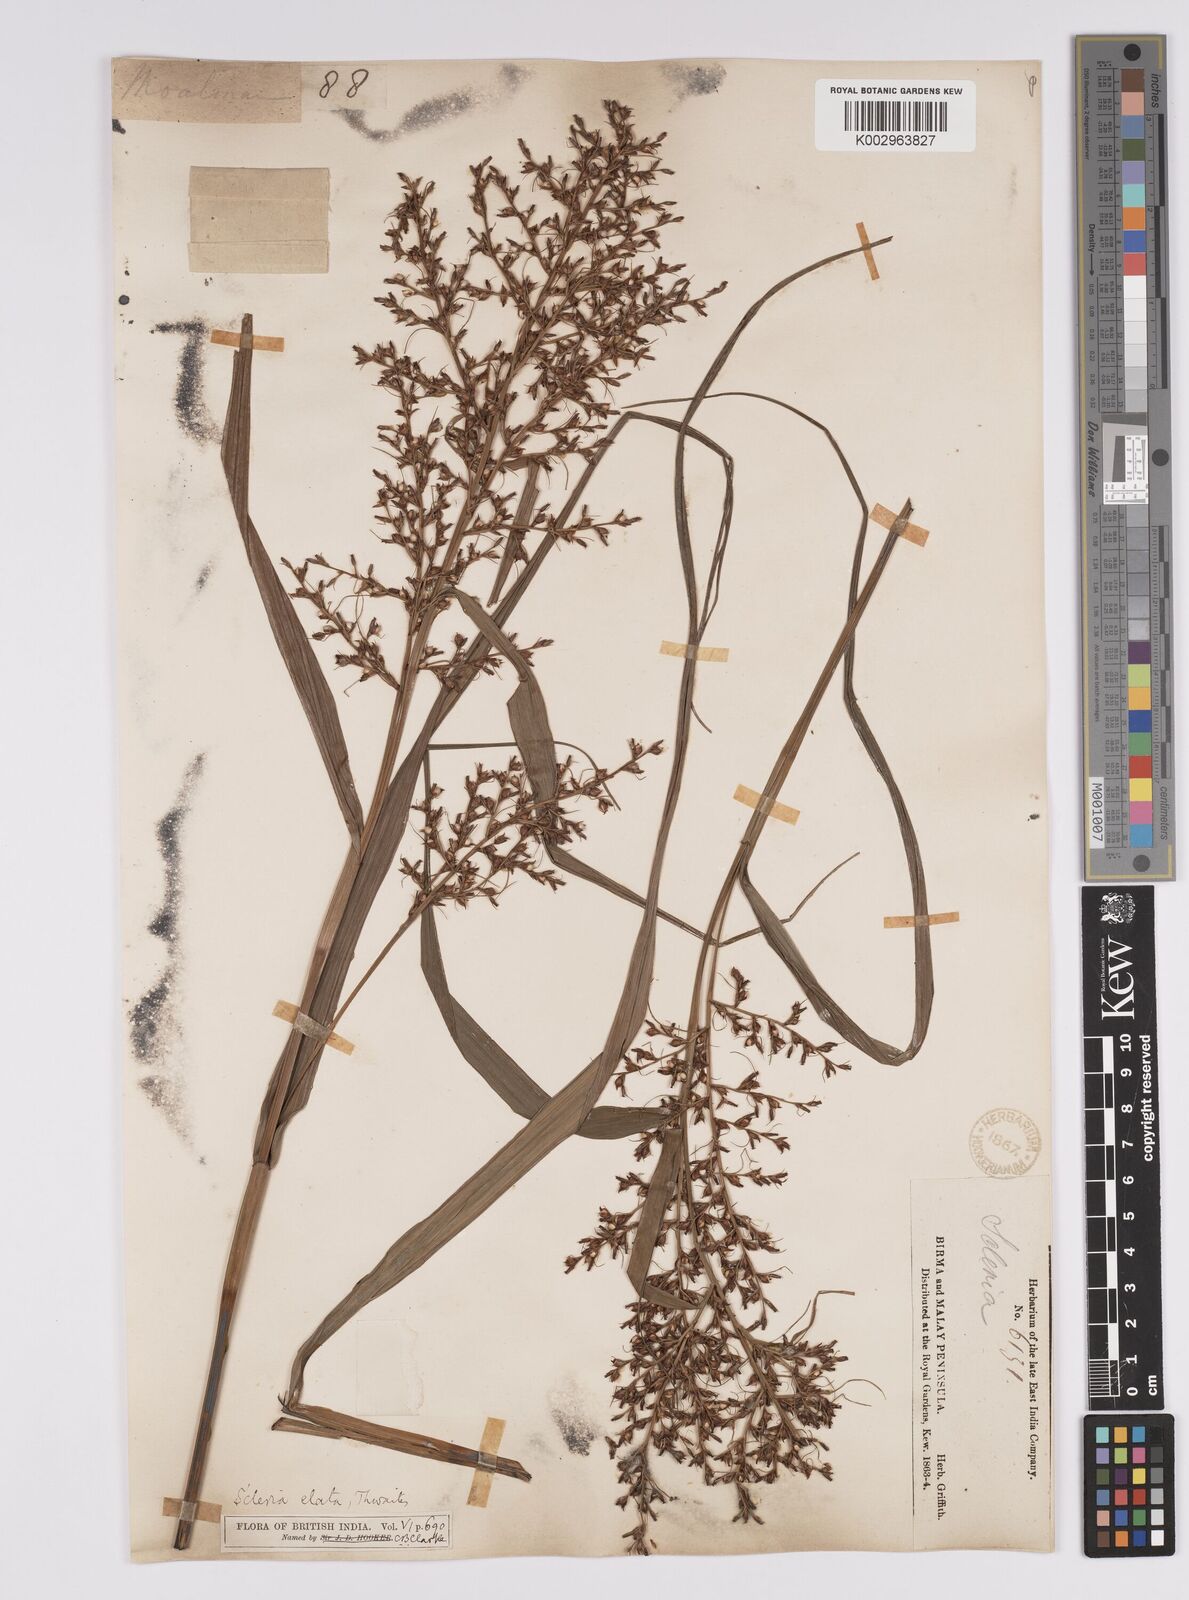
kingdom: Plantae
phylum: Tracheophyta
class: Liliopsida
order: Poales
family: Cyperaceae
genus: Scleria
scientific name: Scleria terrestris
